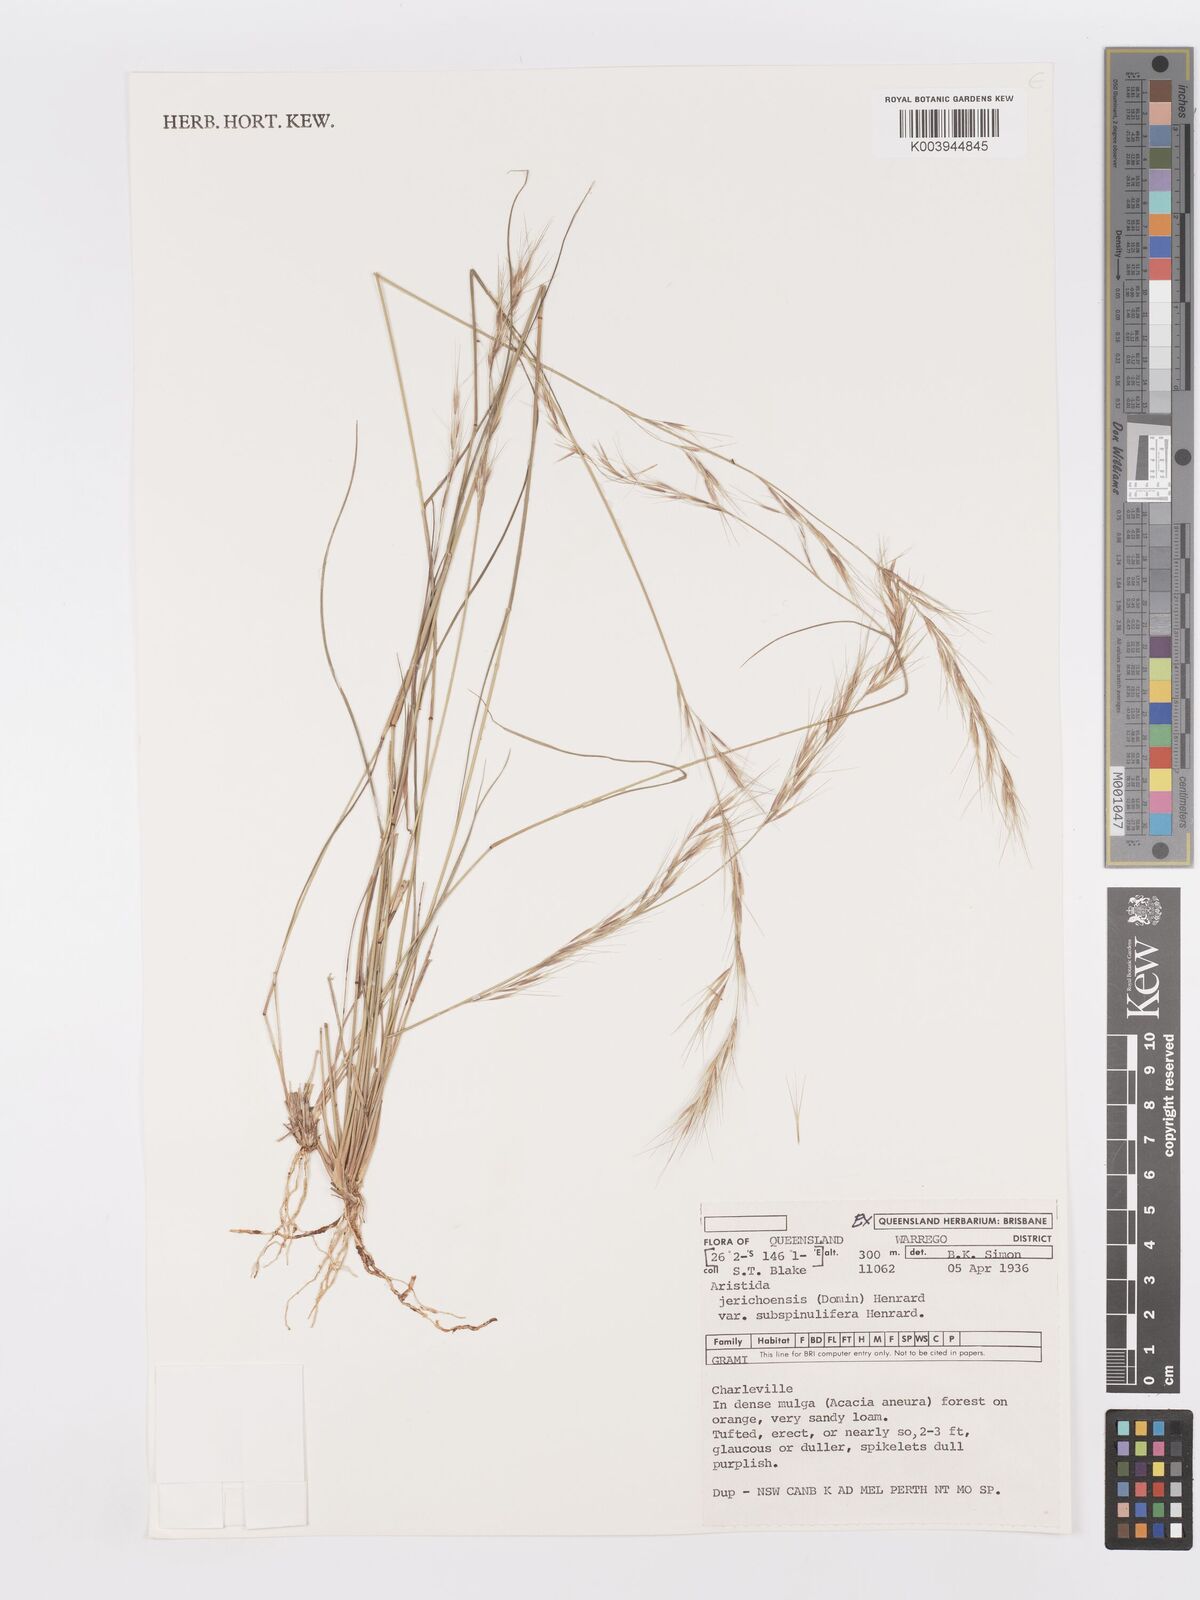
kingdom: Plantae
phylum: Tracheophyta
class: Liliopsida
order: Poales
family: Poaceae
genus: Aristida
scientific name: Aristida jerichoensis
